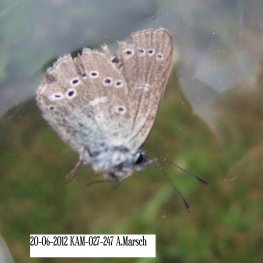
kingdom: Animalia
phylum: Arthropoda
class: Insecta
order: Lepidoptera
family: Lycaenidae
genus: Glaucopsyche
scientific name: Glaucopsyche lygdamus
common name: Silvery Blue
